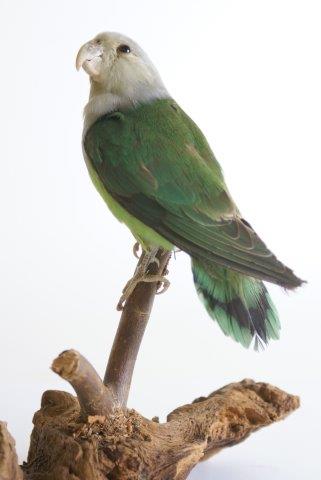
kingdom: Animalia
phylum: Chordata
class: Aves
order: Psittaciformes
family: Psittacidae
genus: Agapornis
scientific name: Agapornis canus
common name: Grey-headed lovebird
